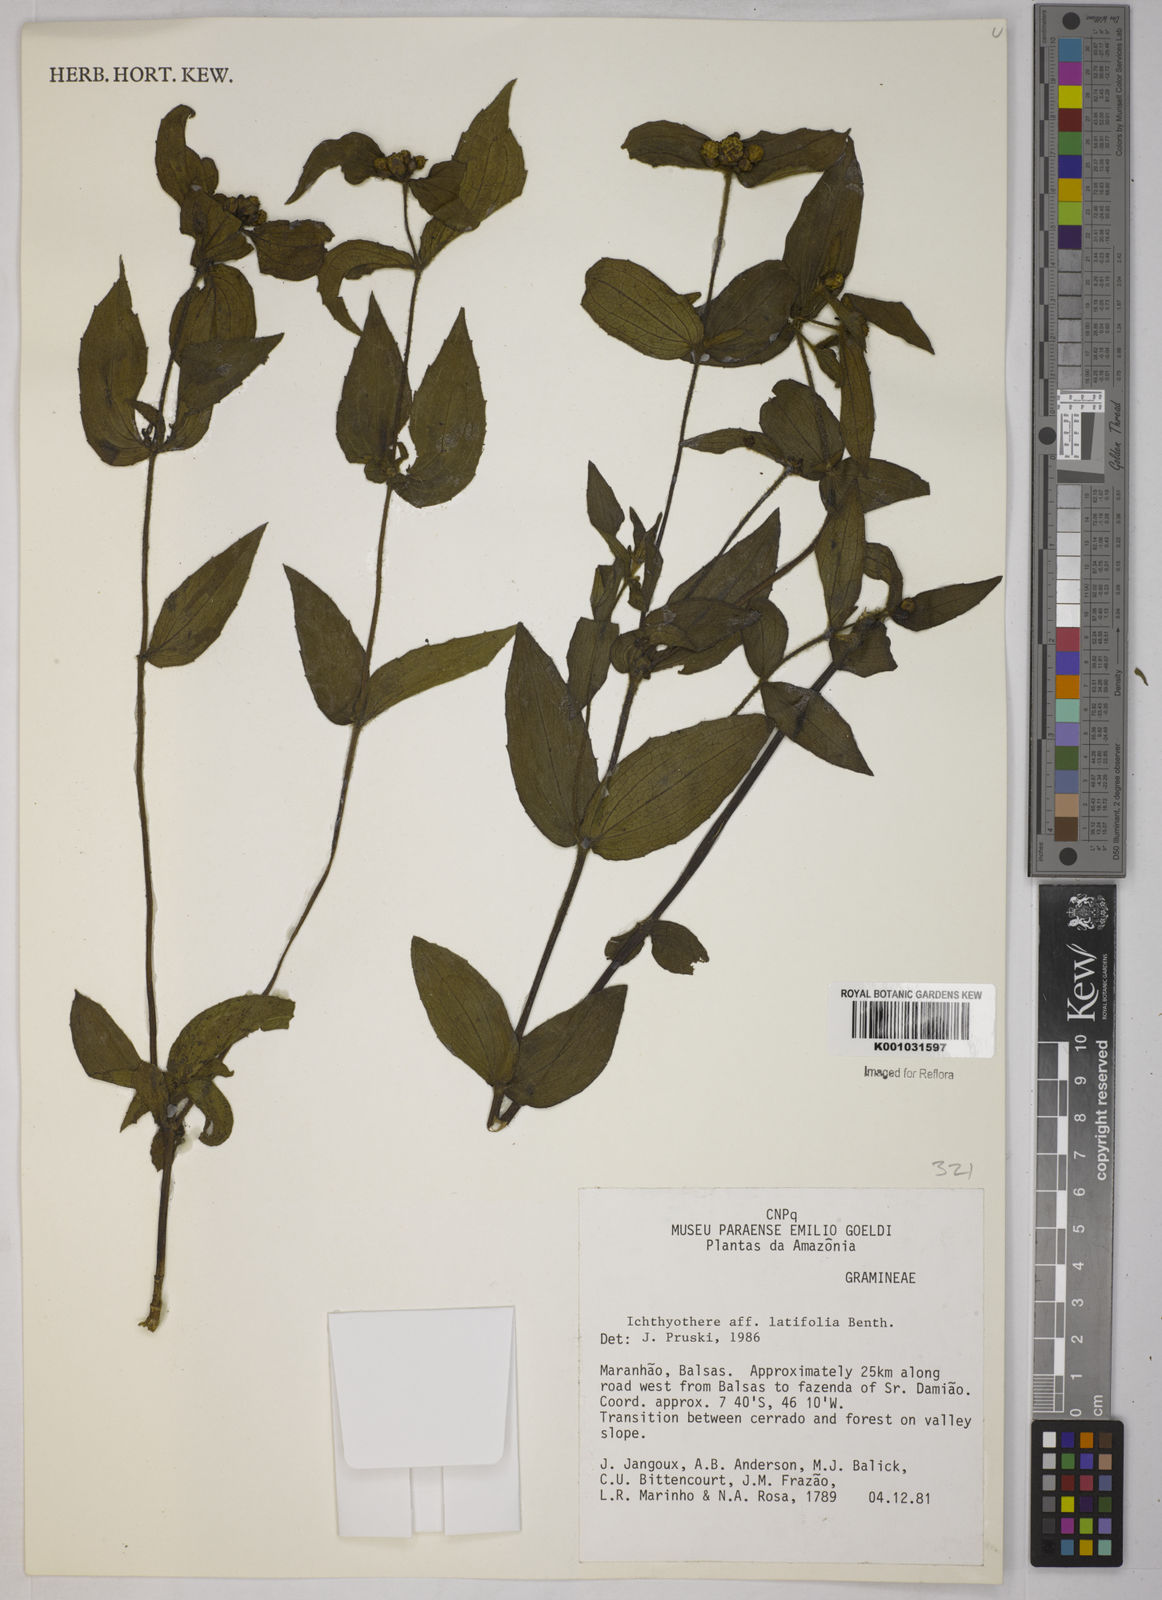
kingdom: Plantae
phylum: Tracheophyta
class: Magnoliopsida
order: Asterales
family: Asteraceae
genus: Ichthyothere
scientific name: Ichthyothere latifolia
